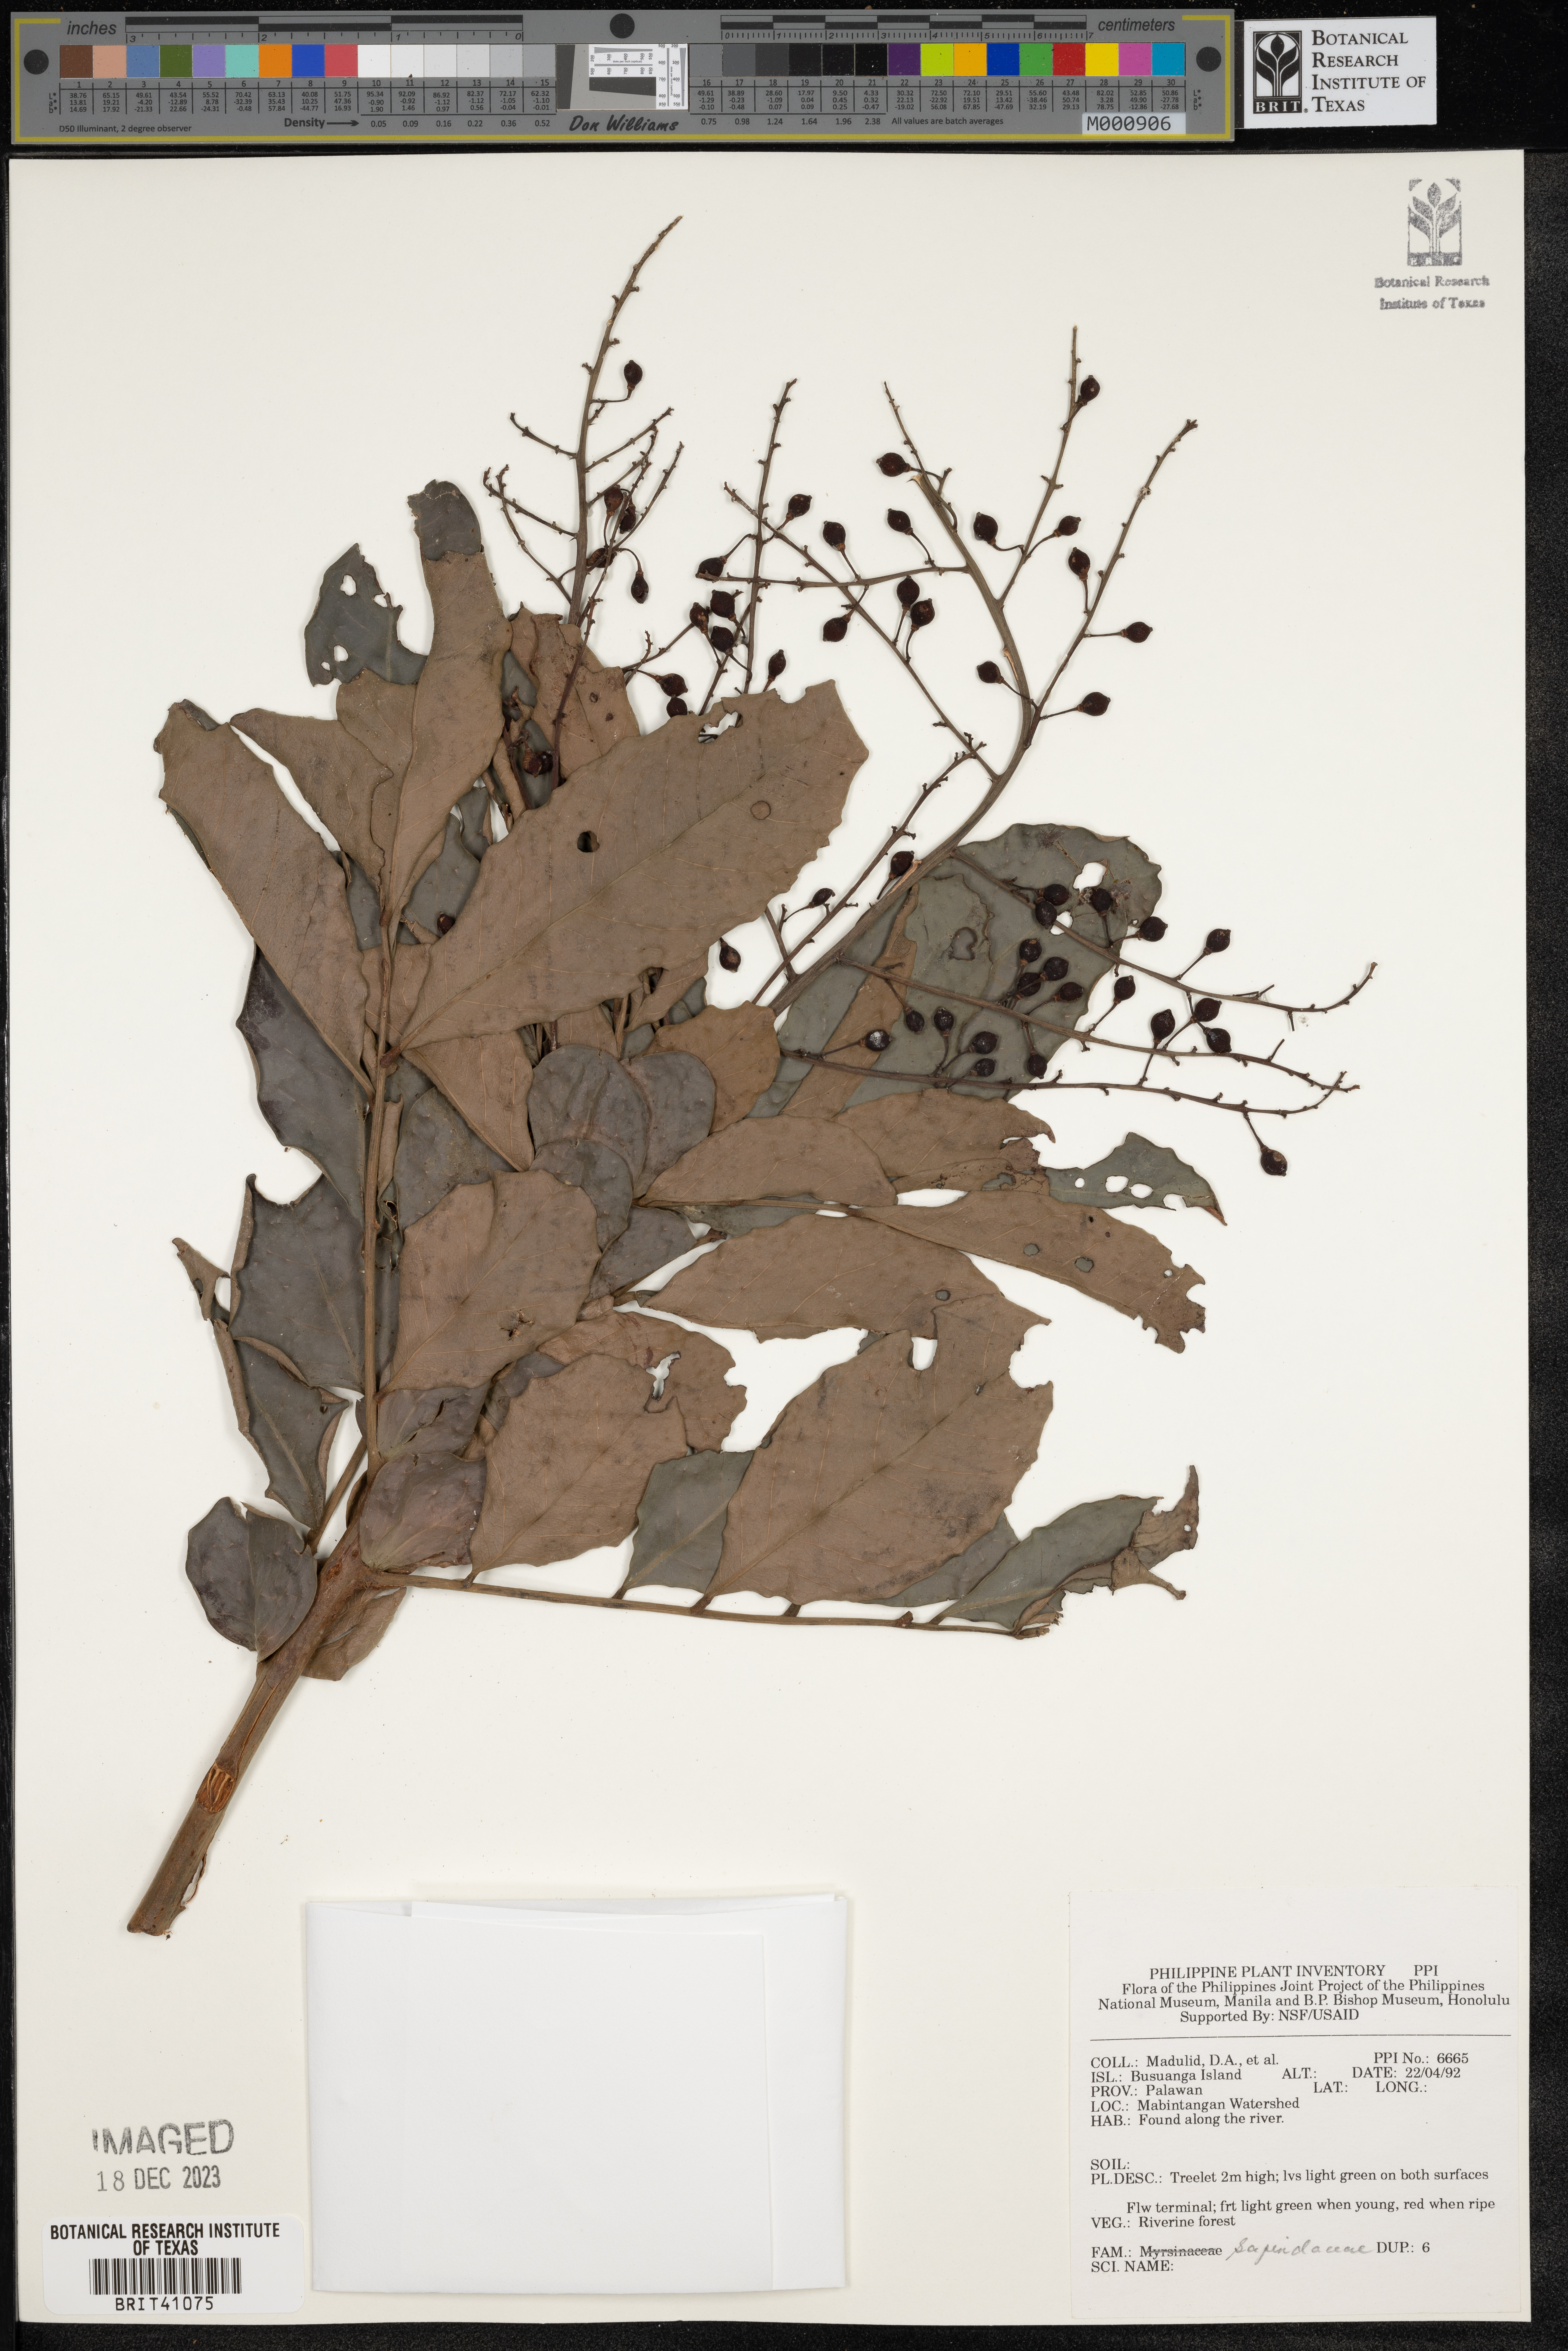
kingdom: Plantae
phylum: Tracheophyta
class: Magnoliopsida
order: Sapindales
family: Sapindaceae
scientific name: Sapindaceae
